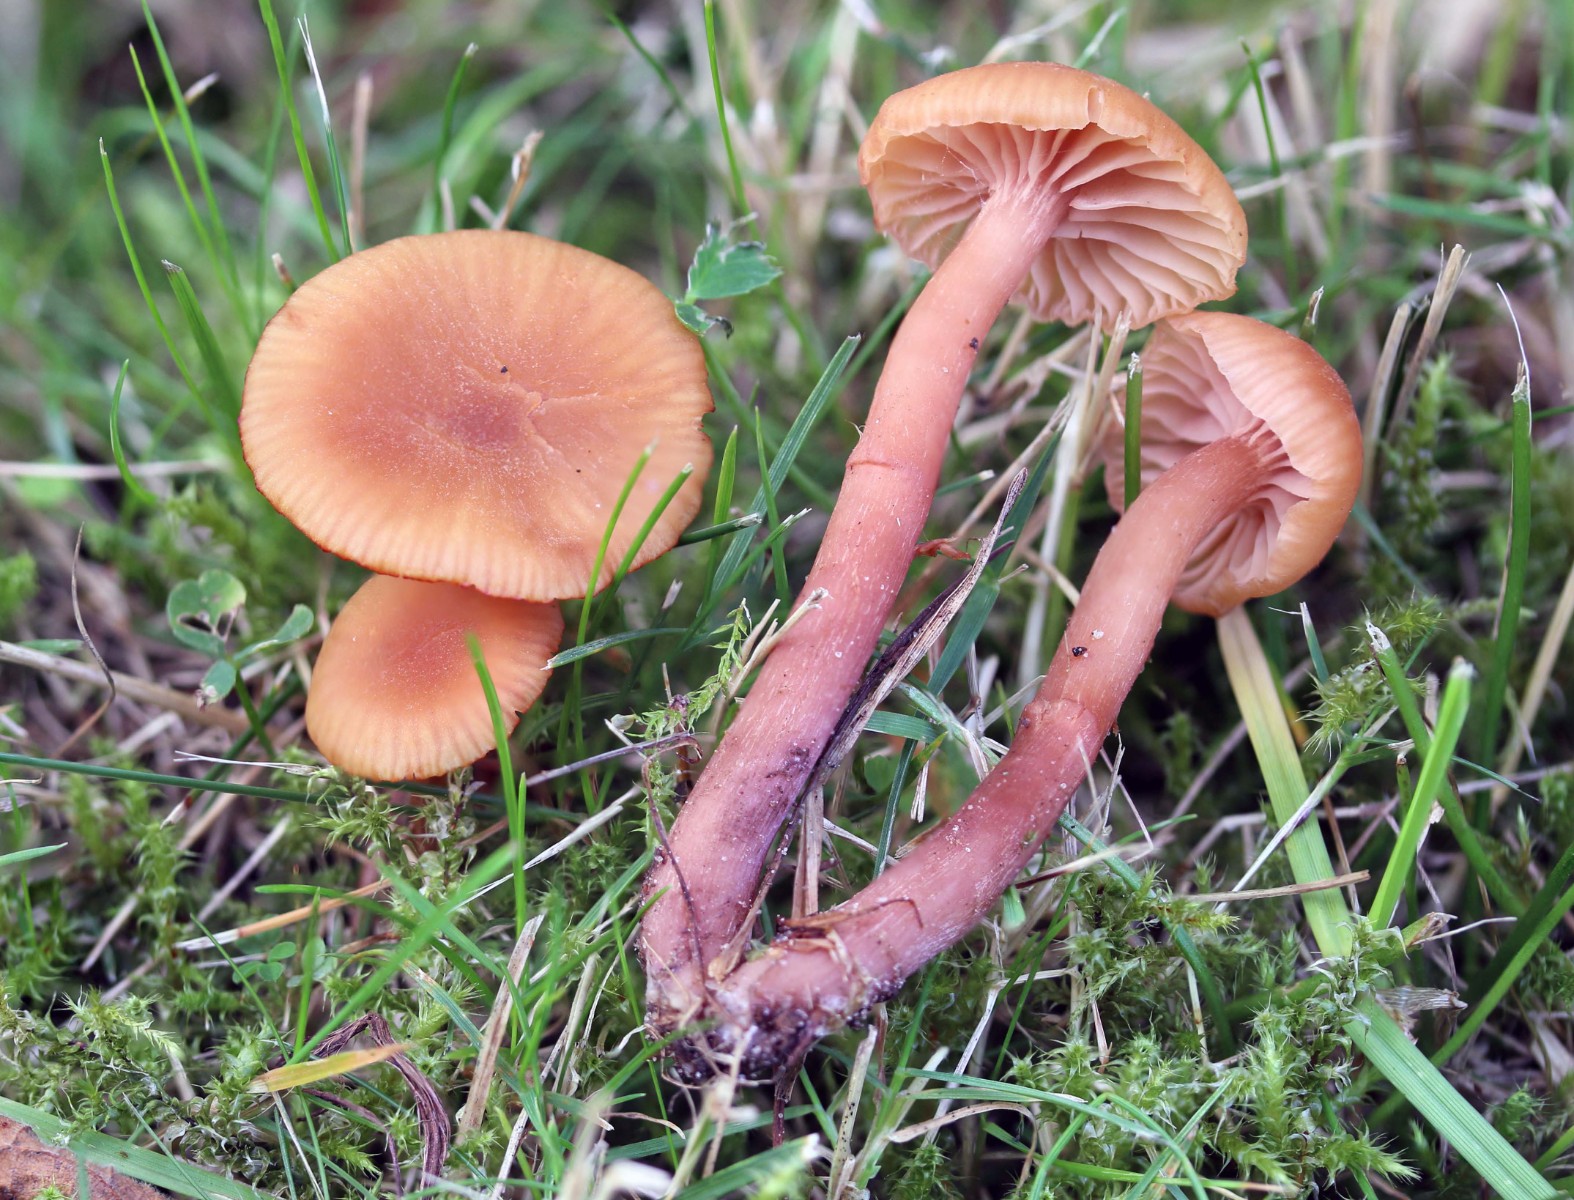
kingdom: Fungi
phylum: Basidiomycota
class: Agaricomycetes
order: Agaricales
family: Hydnangiaceae
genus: Laccaria
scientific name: Laccaria laccata
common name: rød ametysthat
